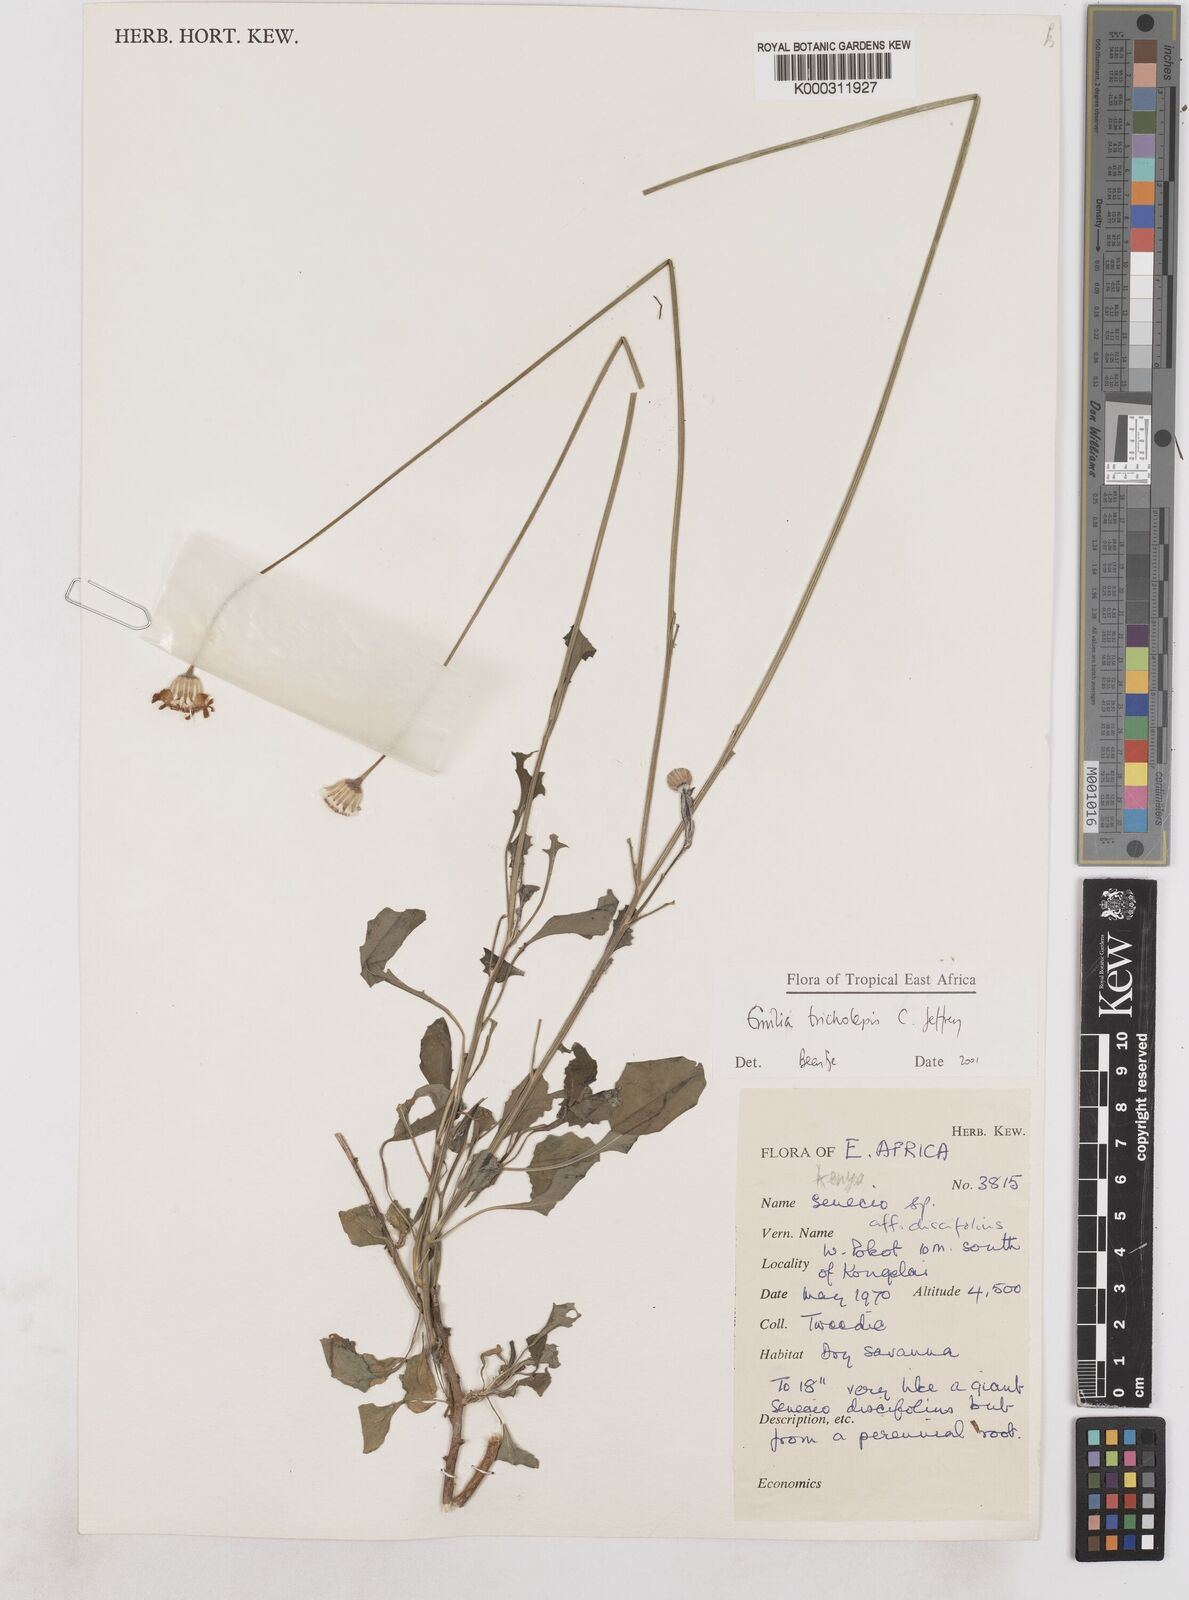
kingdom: Plantae
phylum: Tracheophyta
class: Magnoliopsida
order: Asterales
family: Asteraceae
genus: Emilia
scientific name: Emilia tricholepis
